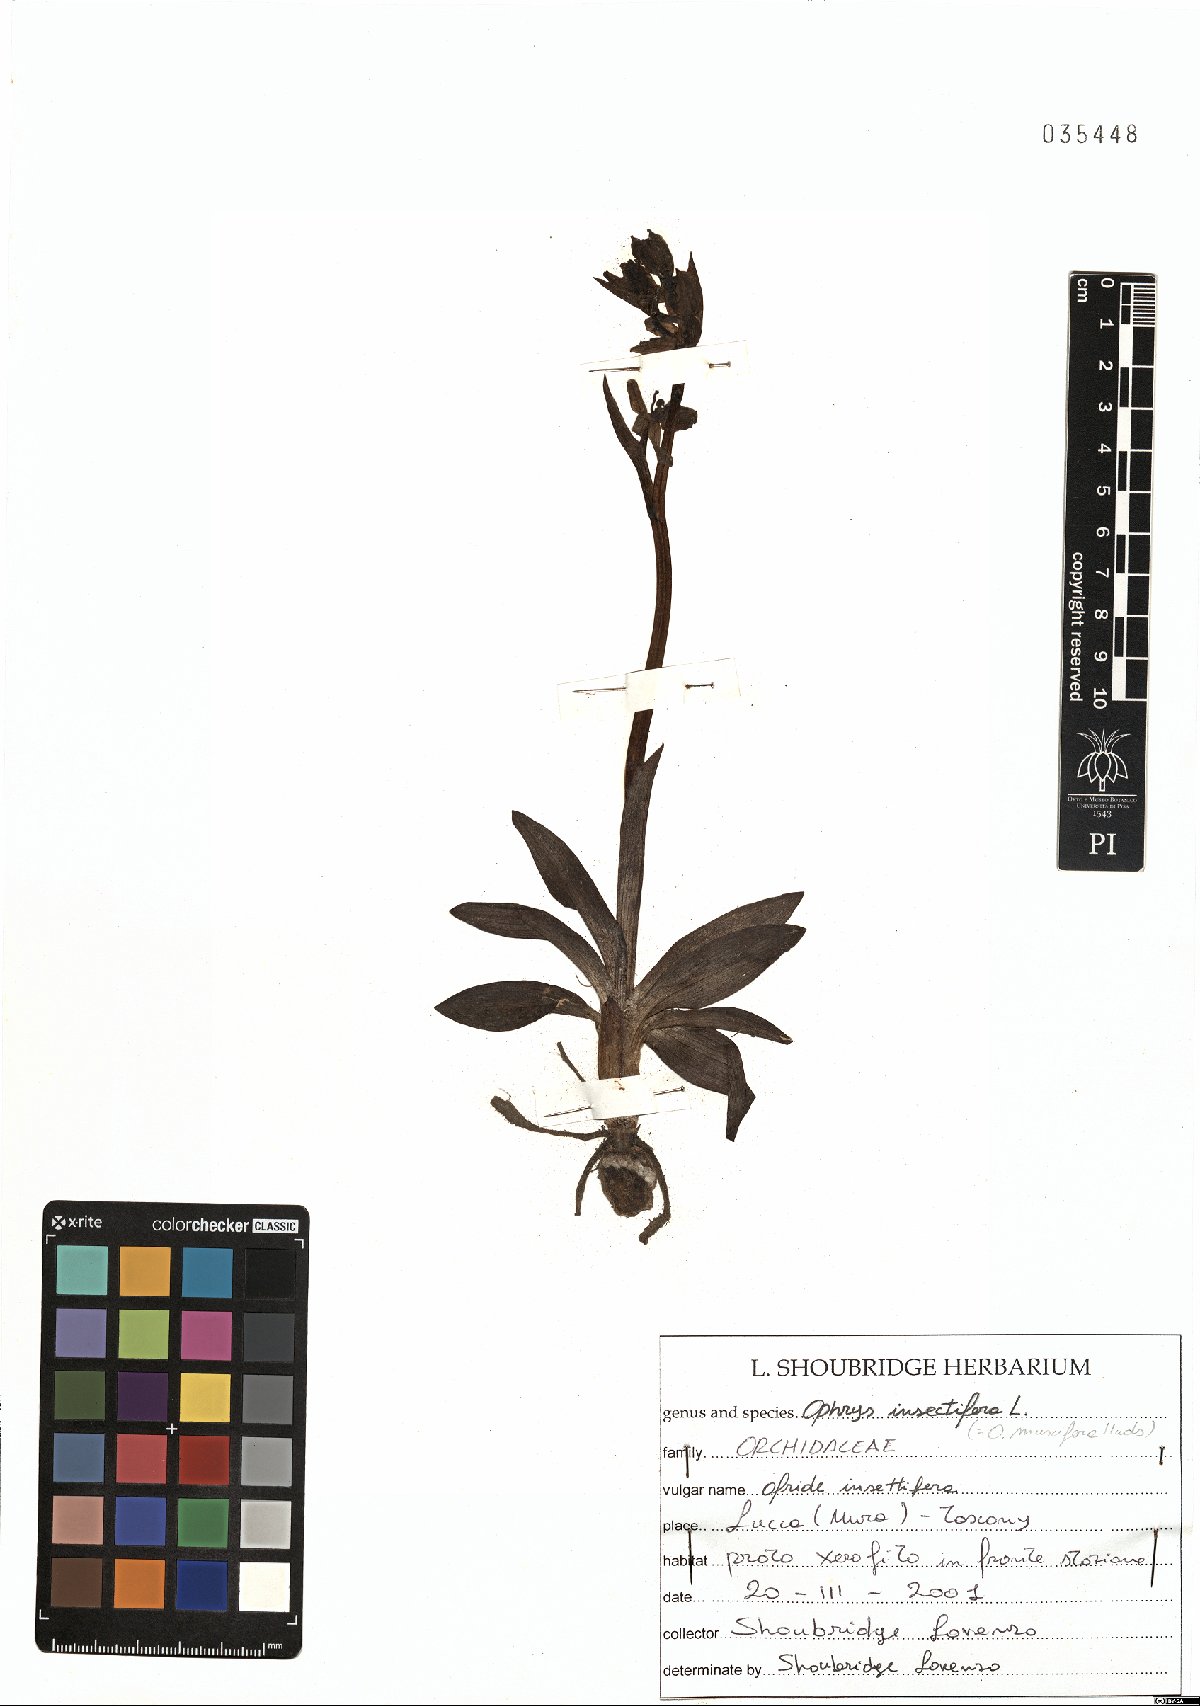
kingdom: Plantae
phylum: Tracheophyta
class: Liliopsida
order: Asparagales
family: Orchidaceae
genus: Ophrys
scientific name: Ophrys insectifera
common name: Fly orchid
